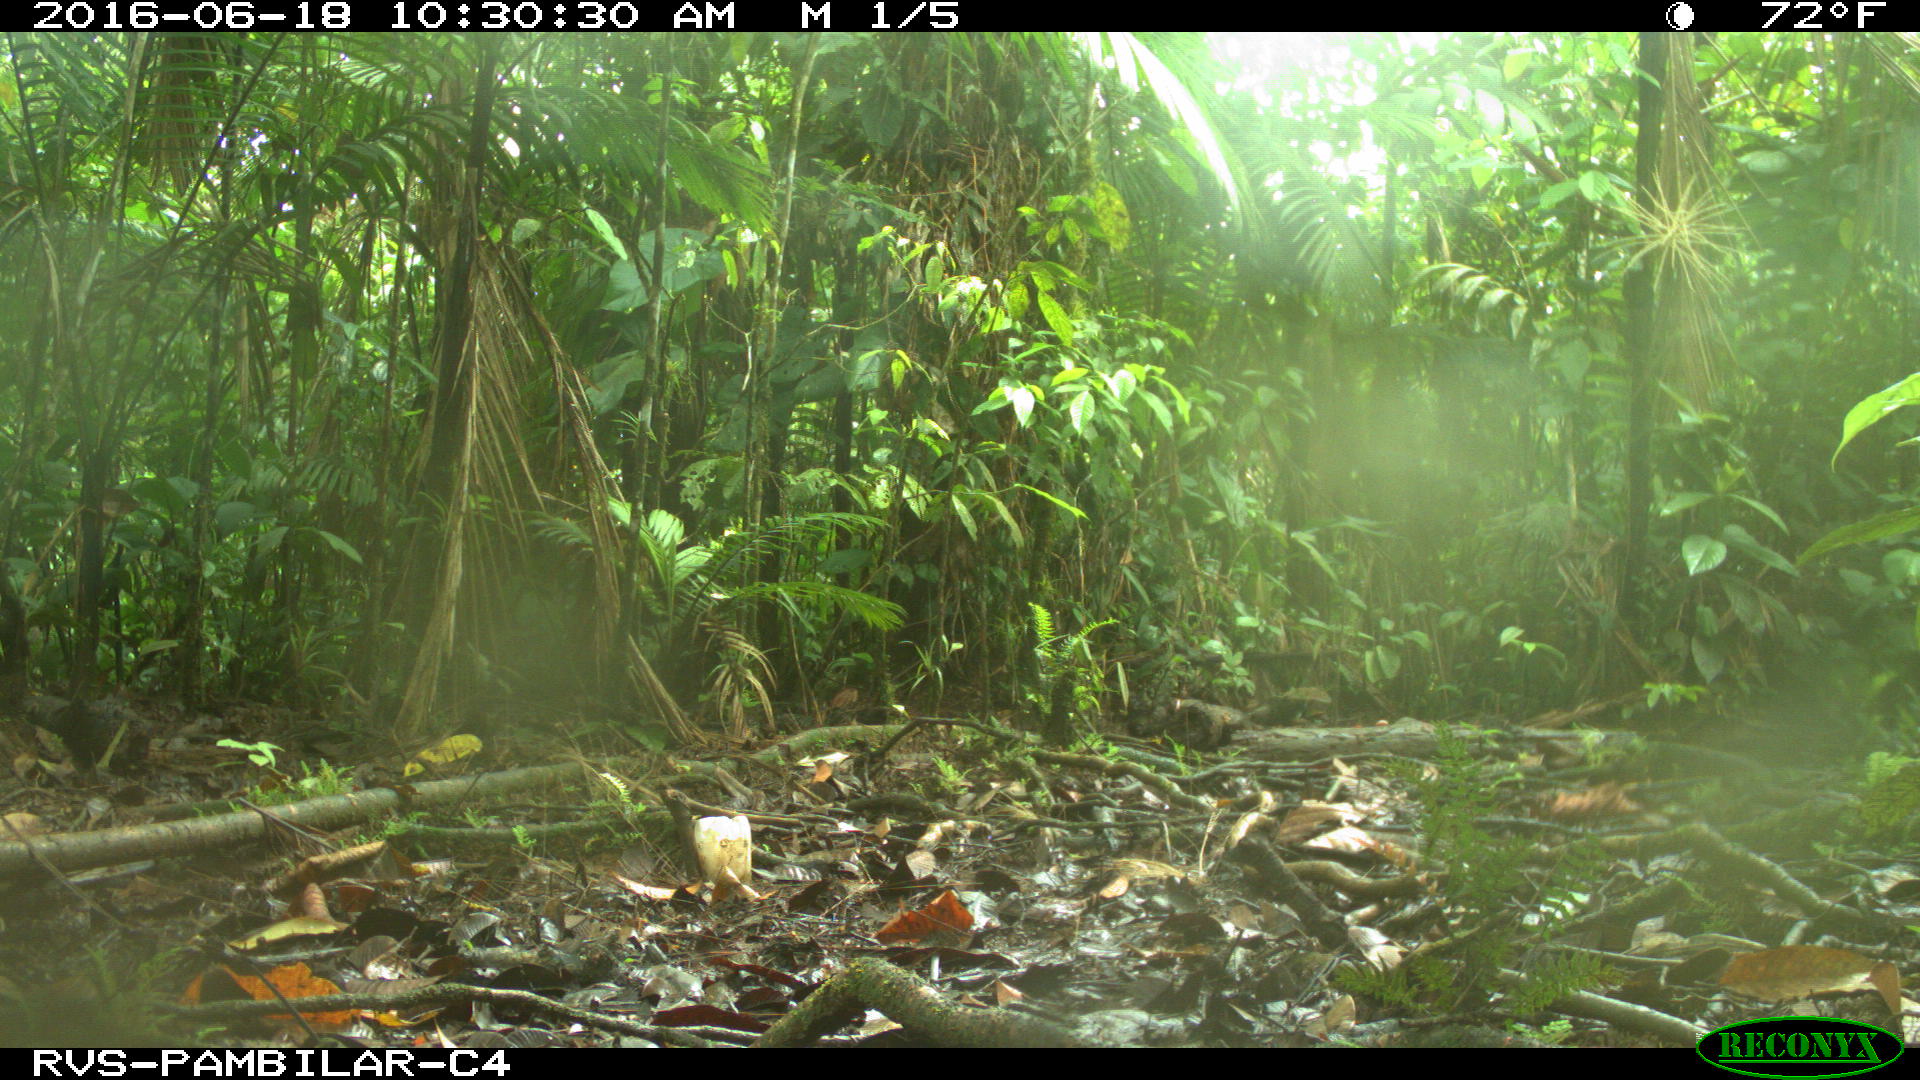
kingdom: Animalia
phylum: Chordata
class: Mammalia
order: Rodentia
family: Dasyproctidae
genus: Dasyprocta
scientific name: Dasyprocta punctata
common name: Central american agouti
